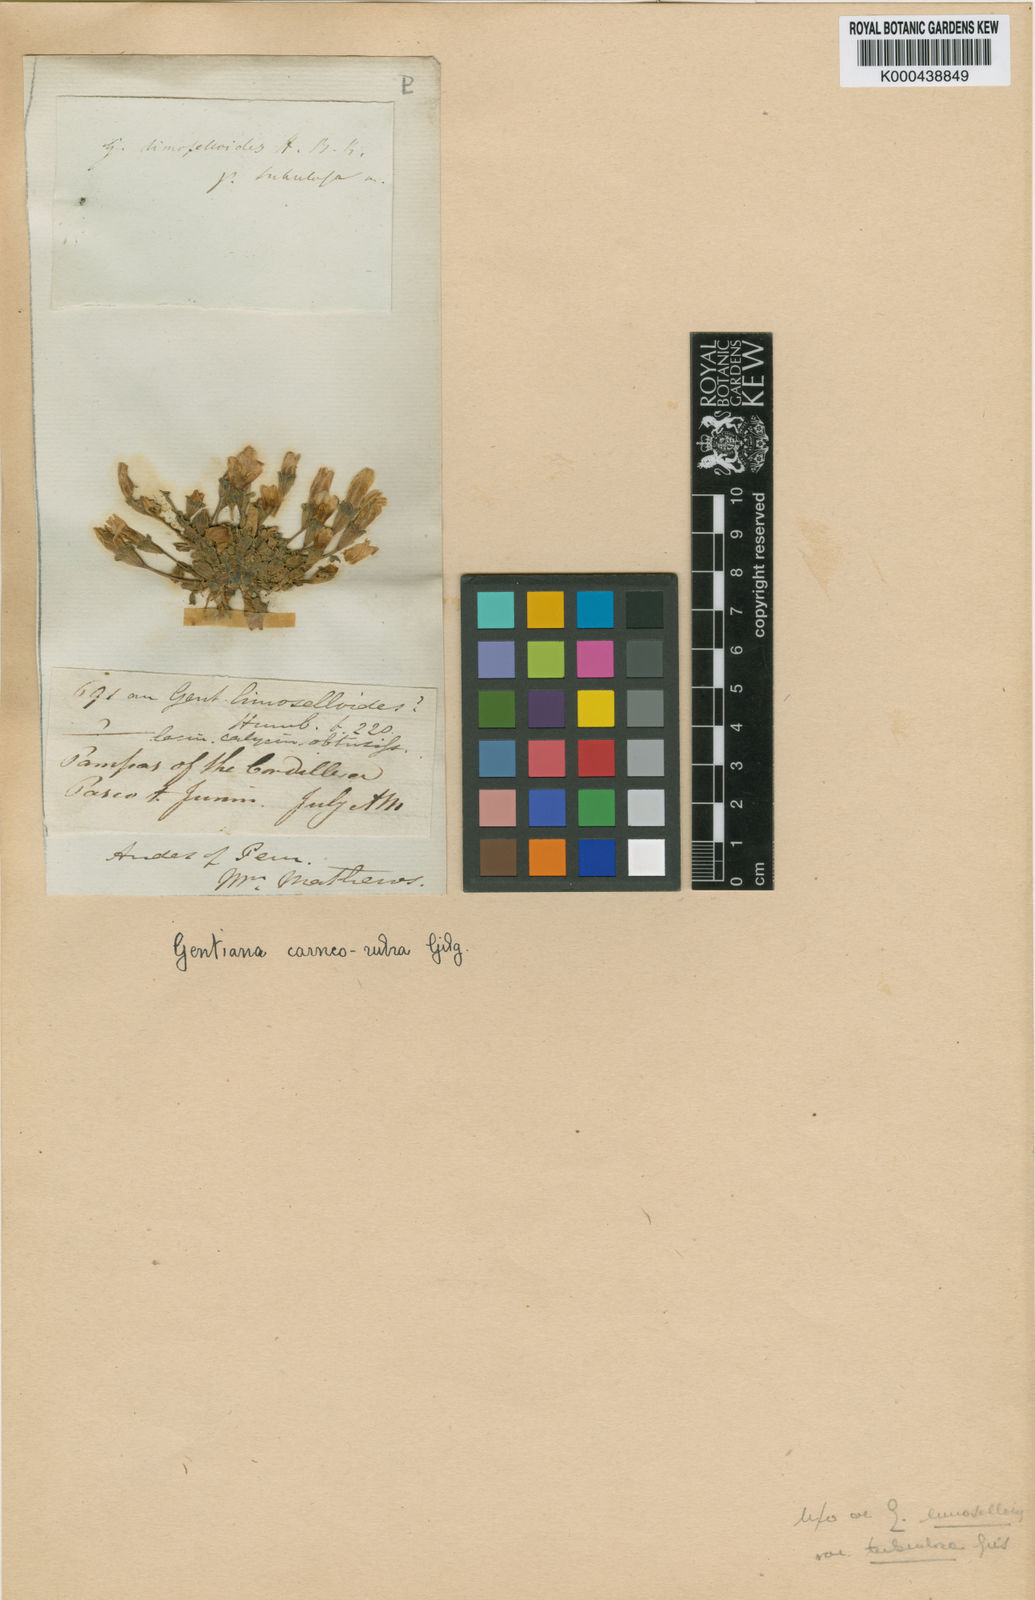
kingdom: Plantae
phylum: Tracheophyta
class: Magnoliopsida
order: Gentianales
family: Gentianaceae
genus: Gentianella
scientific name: Gentianella carneorubra
